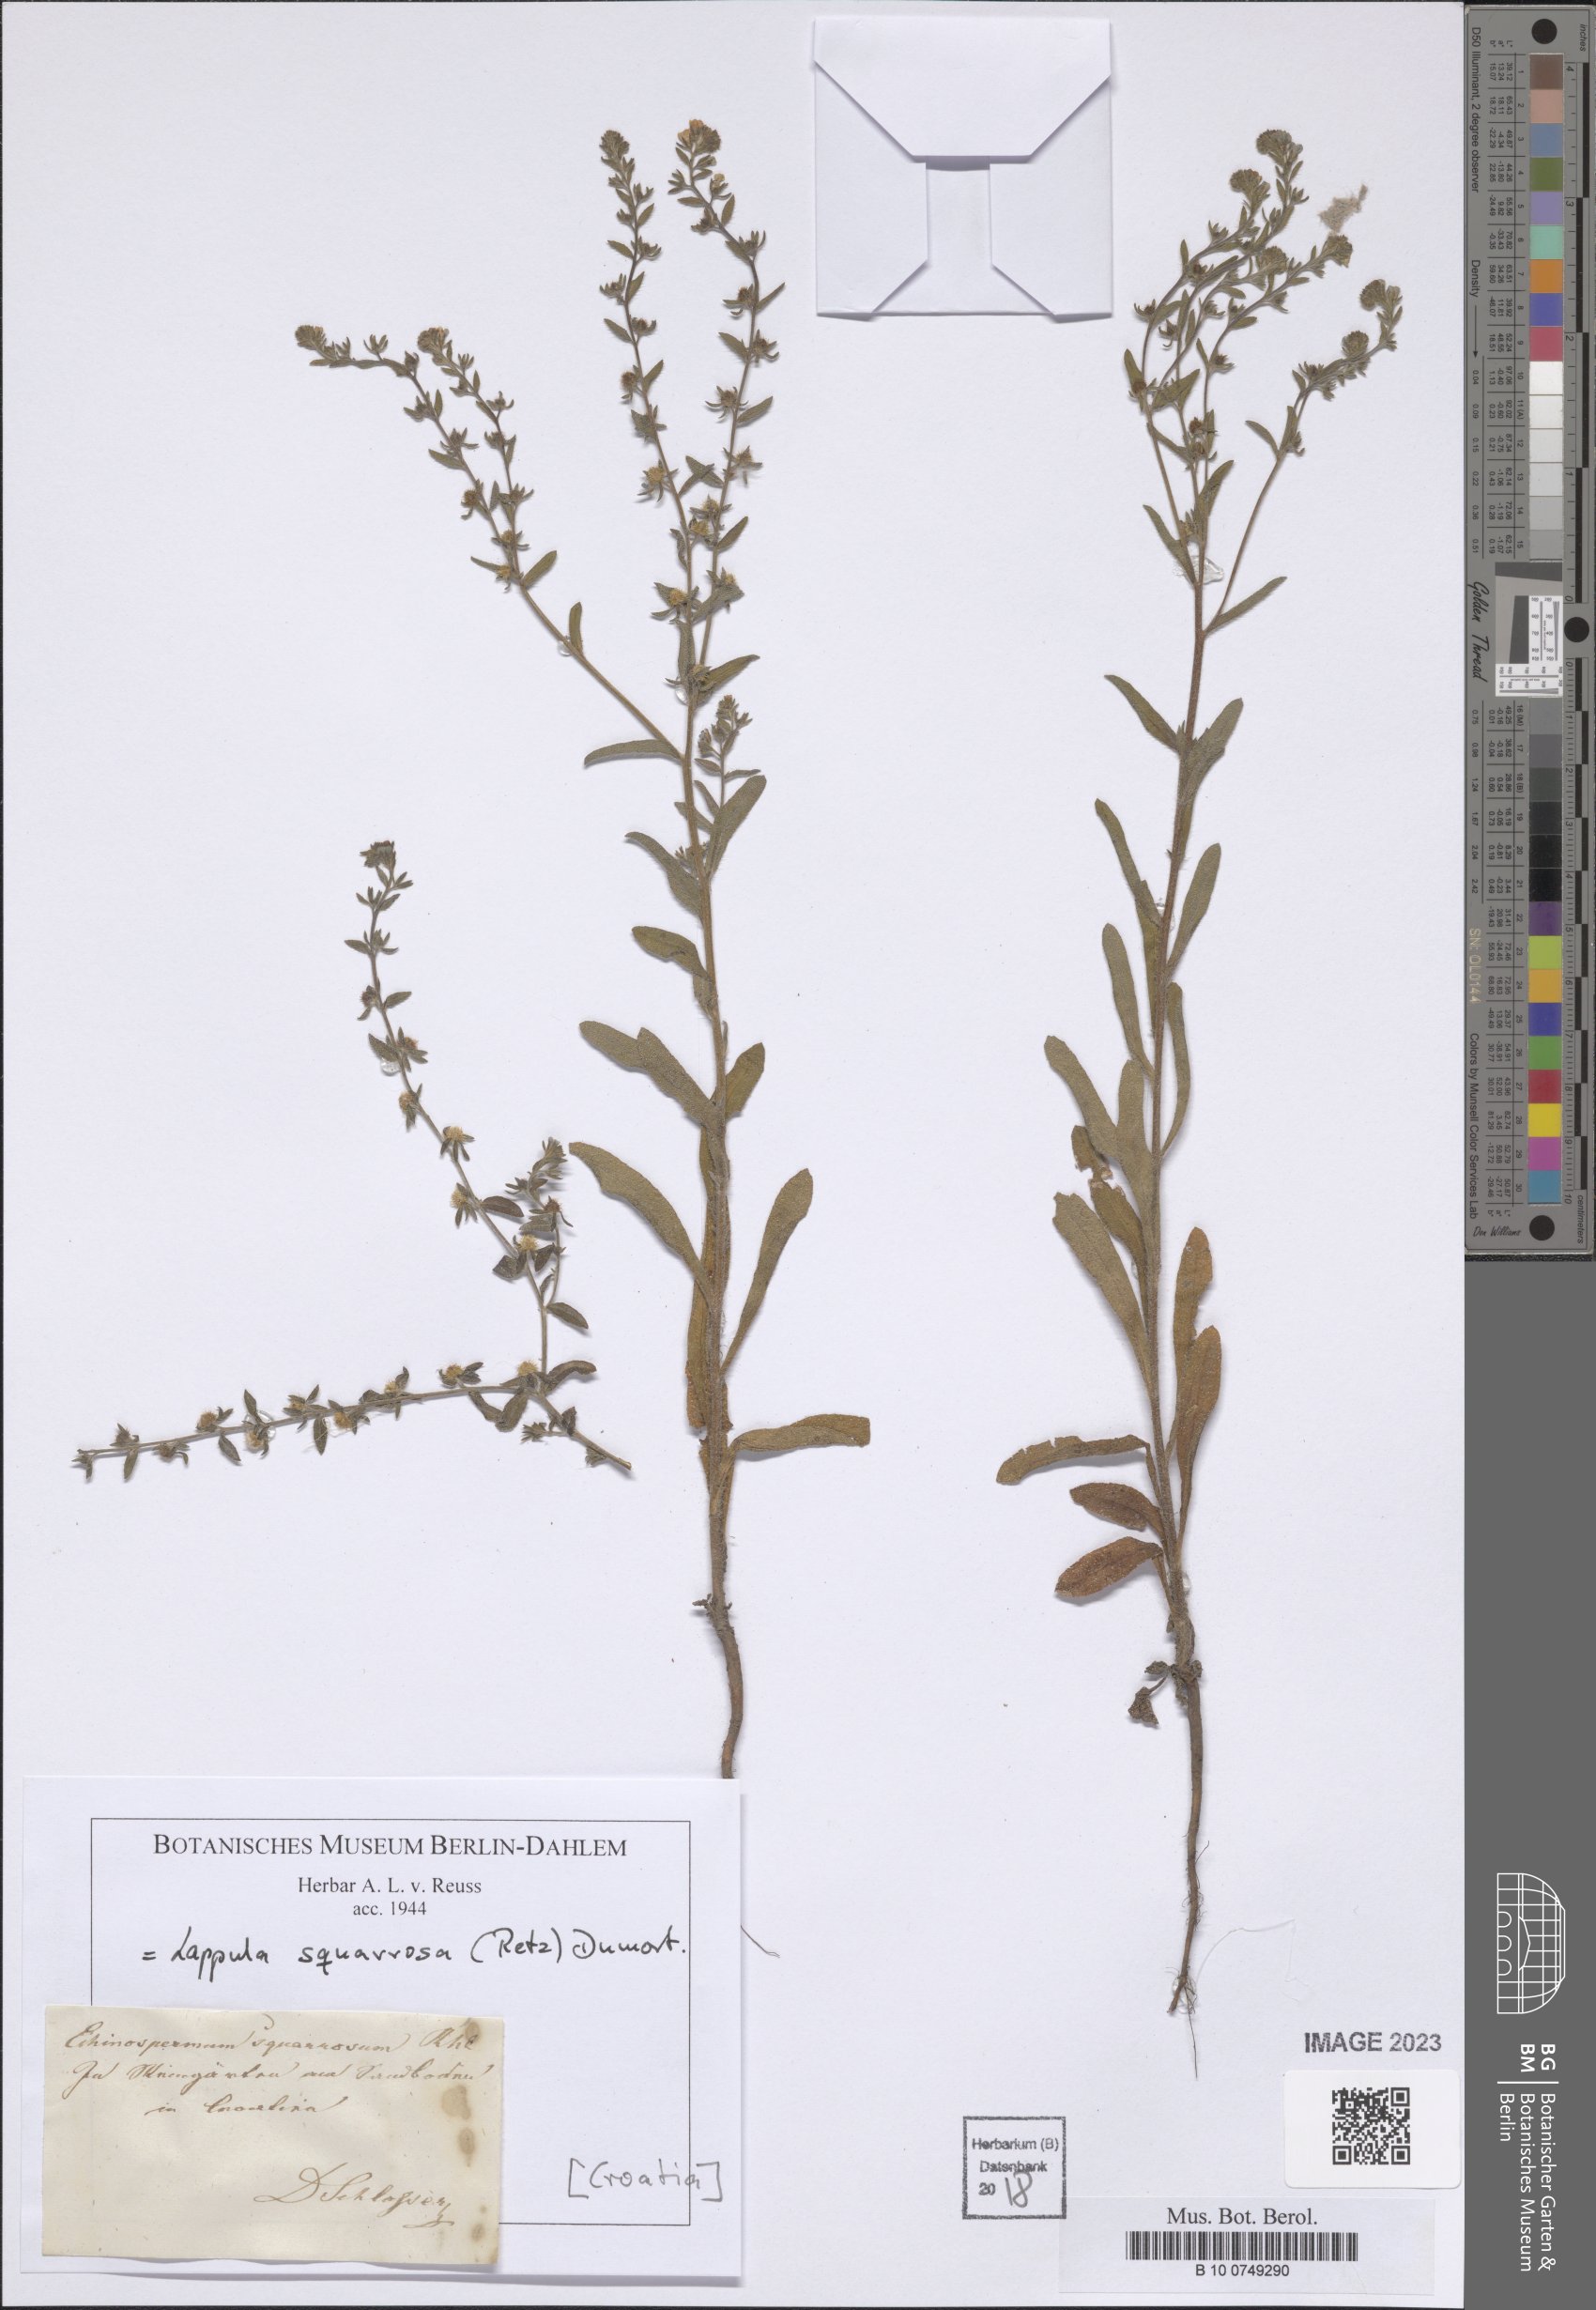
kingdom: Plantae
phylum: Tracheophyta
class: Magnoliopsida
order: Boraginales
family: Boraginaceae
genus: Lappula
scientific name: Lappula squarrosa
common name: European stickseed
